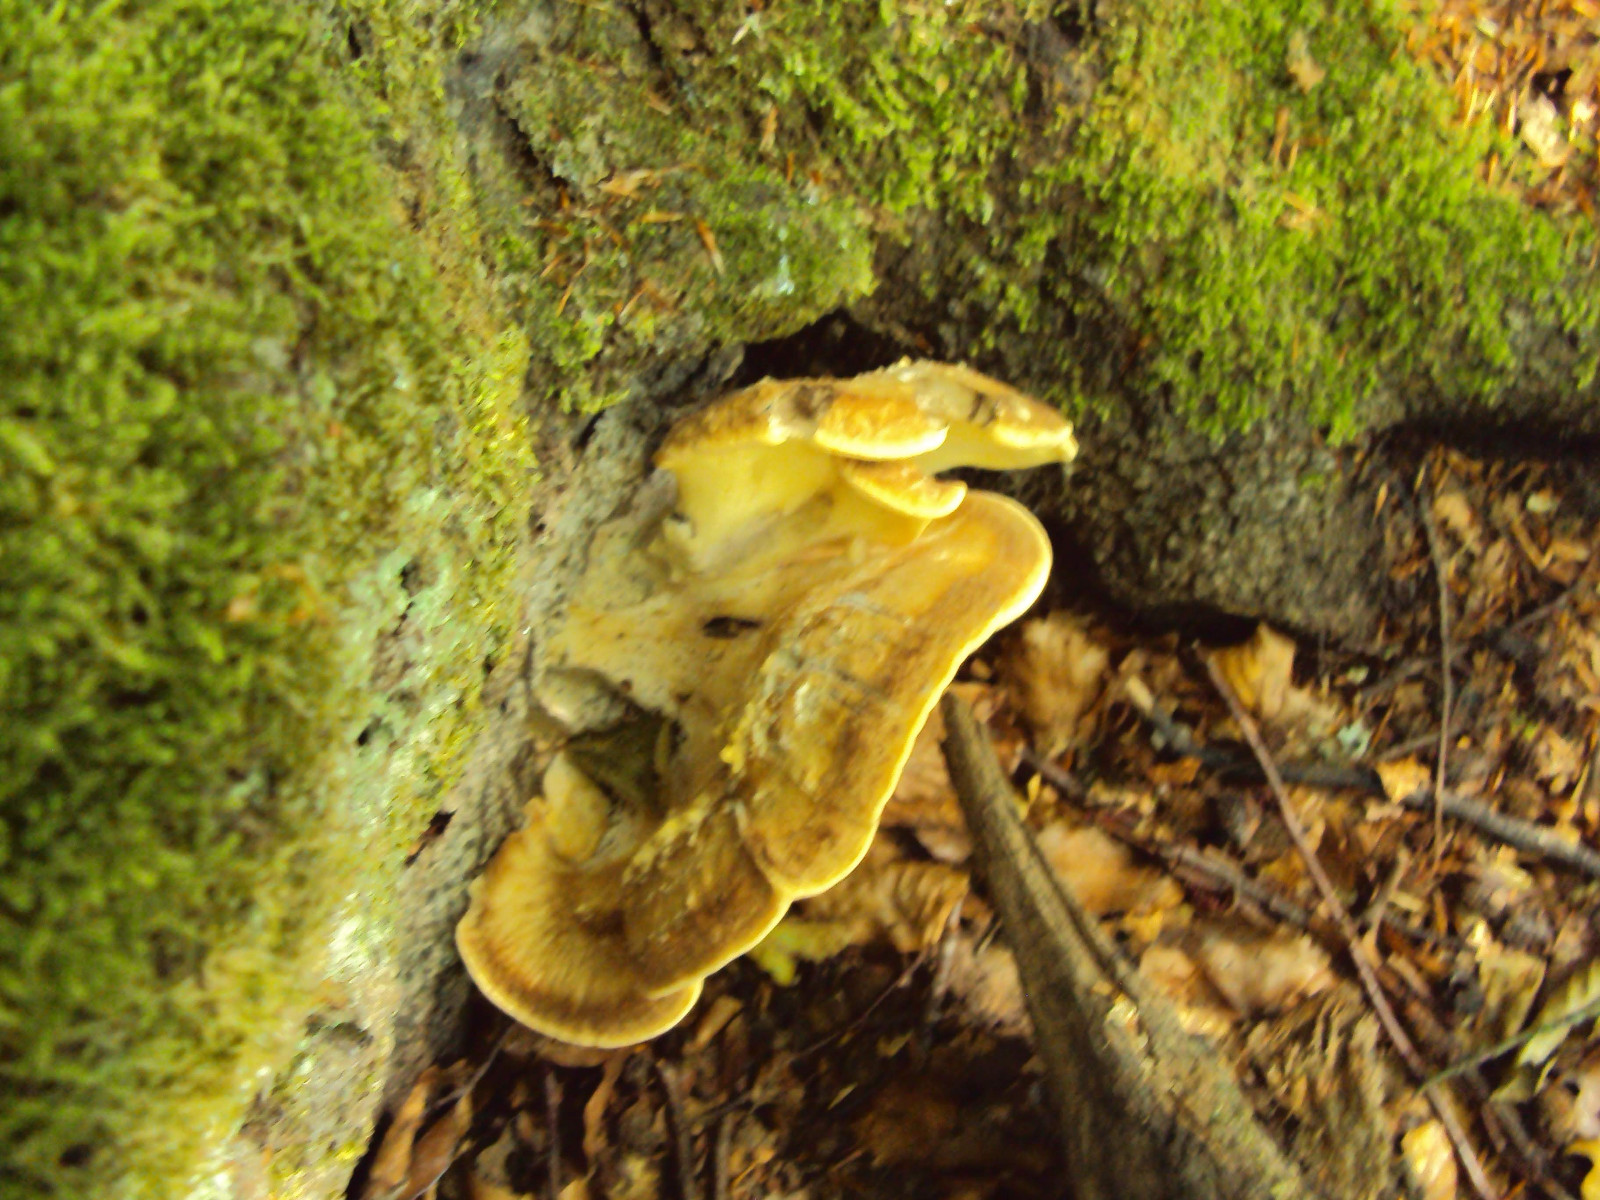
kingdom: Fungi
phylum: Basidiomycota
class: Agaricomycetes
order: Polyporales
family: Meripilaceae
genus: Meripilus
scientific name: Meripilus giganteus
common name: kæmpeporesvamp
